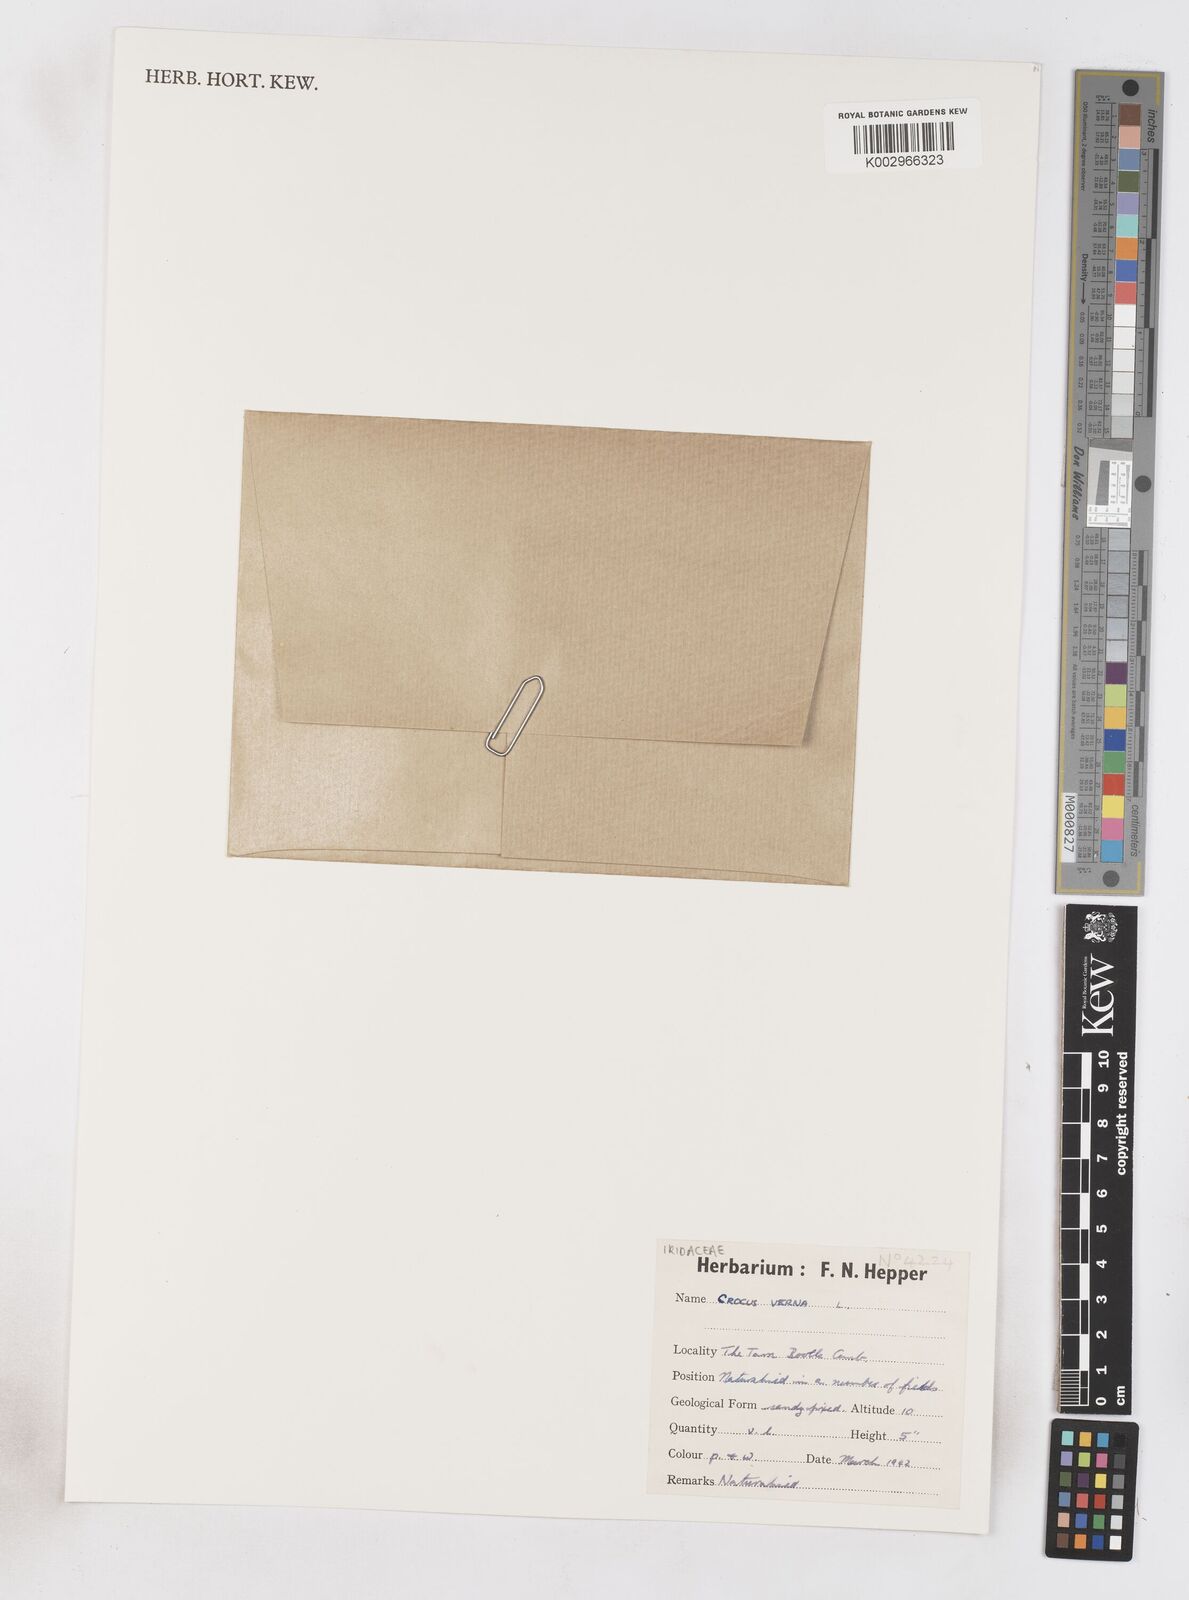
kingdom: Plantae
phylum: Tracheophyta
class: Liliopsida
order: Asparagales
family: Iridaceae
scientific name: Iridaceae
